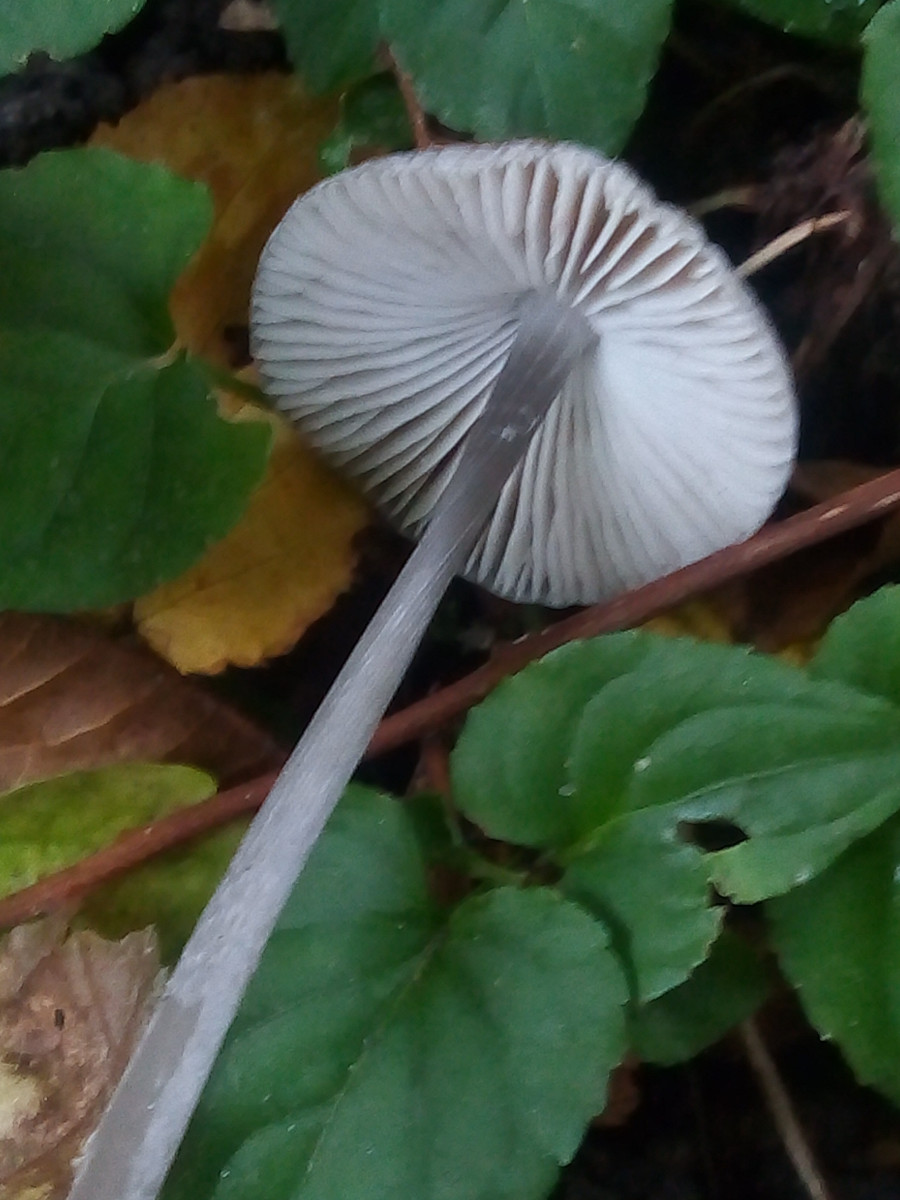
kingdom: Fungi
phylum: Basidiomycota
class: Agaricomycetes
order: Agaricales
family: Mycenaceae
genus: Mycena
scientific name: Mycena polygramma
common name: mangestribet huesvamp
